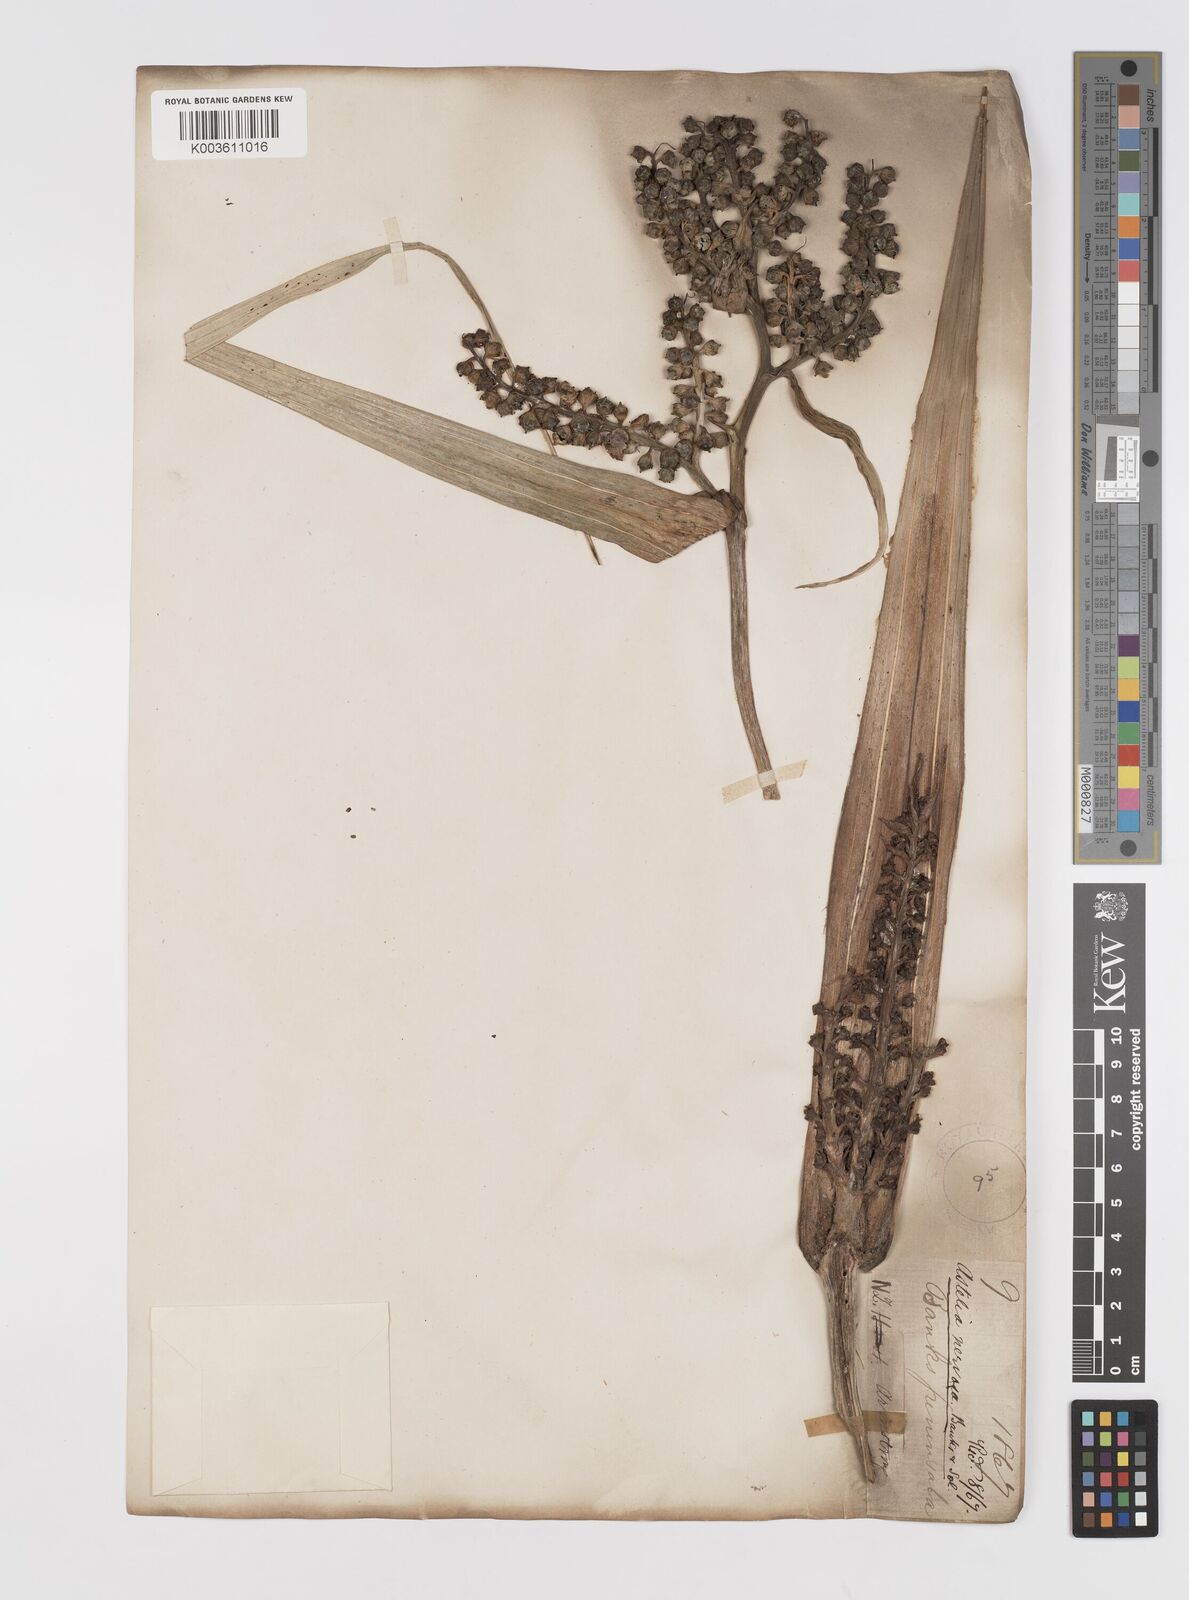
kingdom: Plantae
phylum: Tracheophyta
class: Liliopsida
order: Asparagales
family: Asteliaceae
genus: Astelia
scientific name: Astelia nervosa
